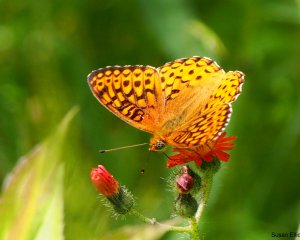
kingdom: Animalia
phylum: Arthropoda
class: Insecta
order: Lepidoptera
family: Nymphalidae
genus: Speyeria
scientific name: Speyeria atlantis
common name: Atlantis Fritillary
